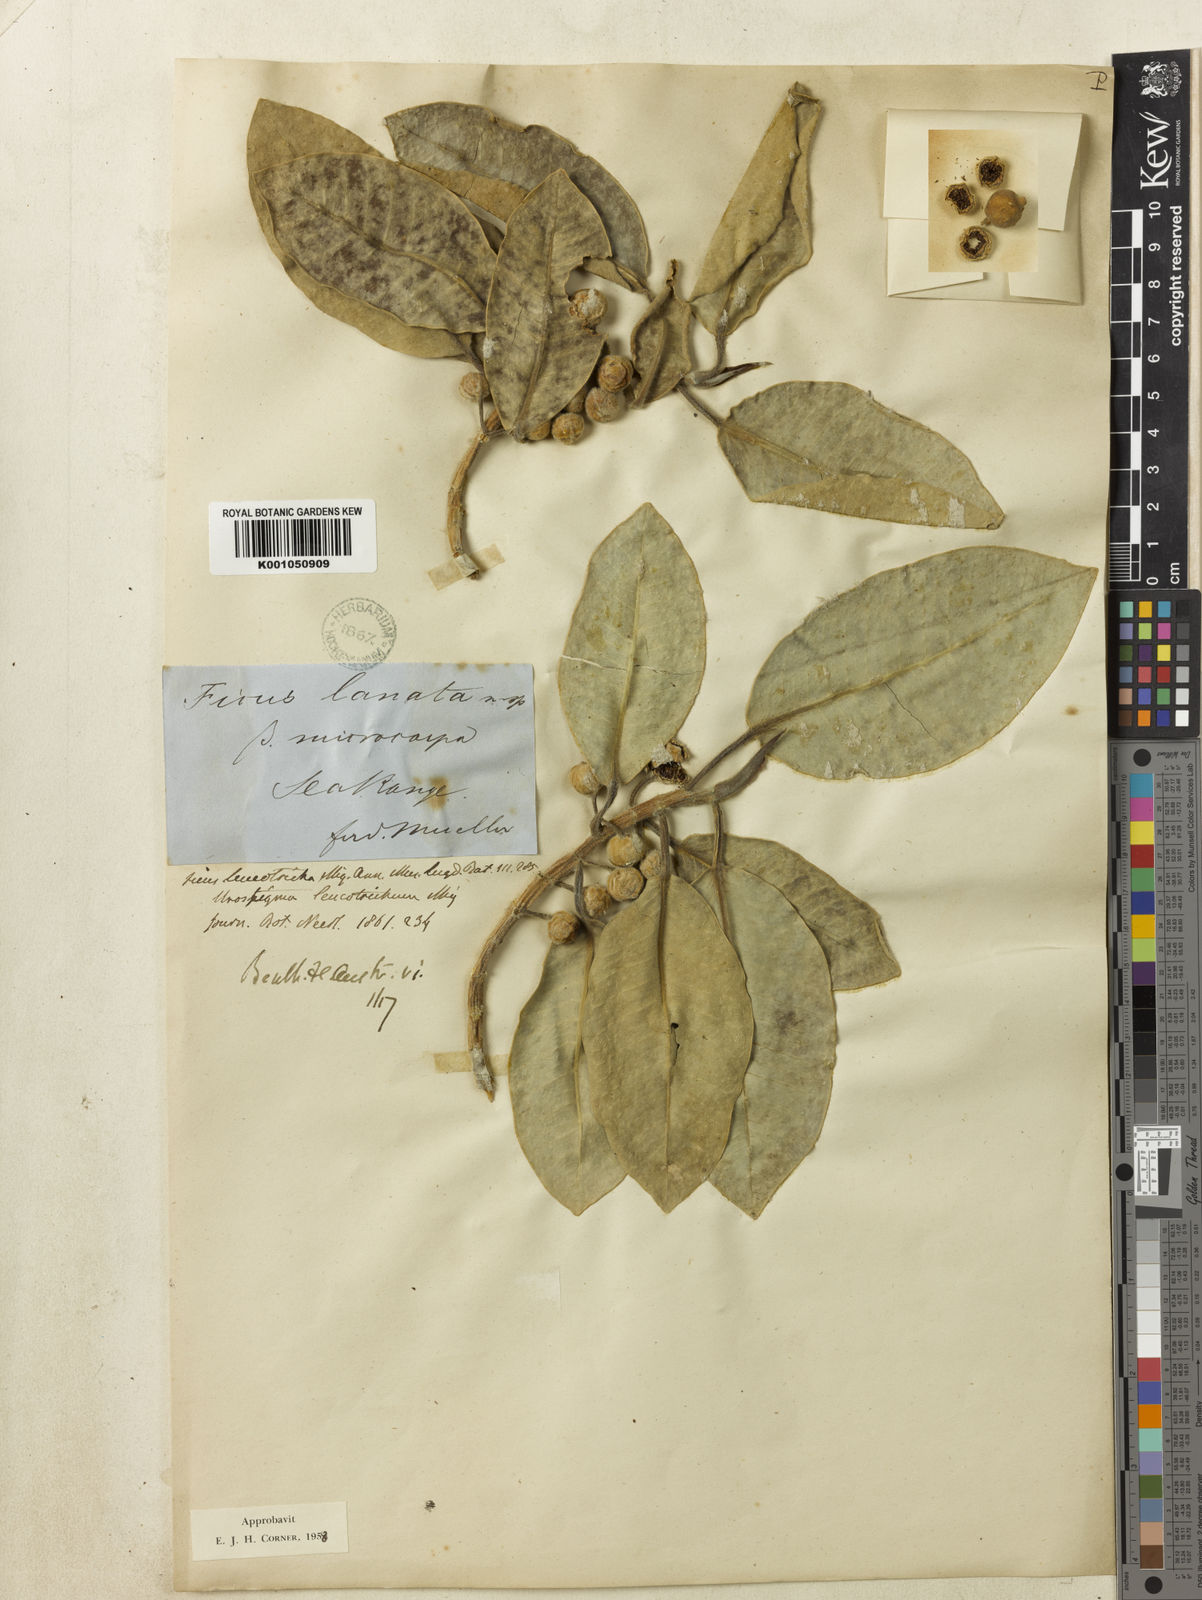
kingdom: Plantae
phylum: Tracheophyta
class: Magnoliopsida
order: Rosales
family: Moraceae
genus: Ficus
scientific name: Ficus leucotricha
